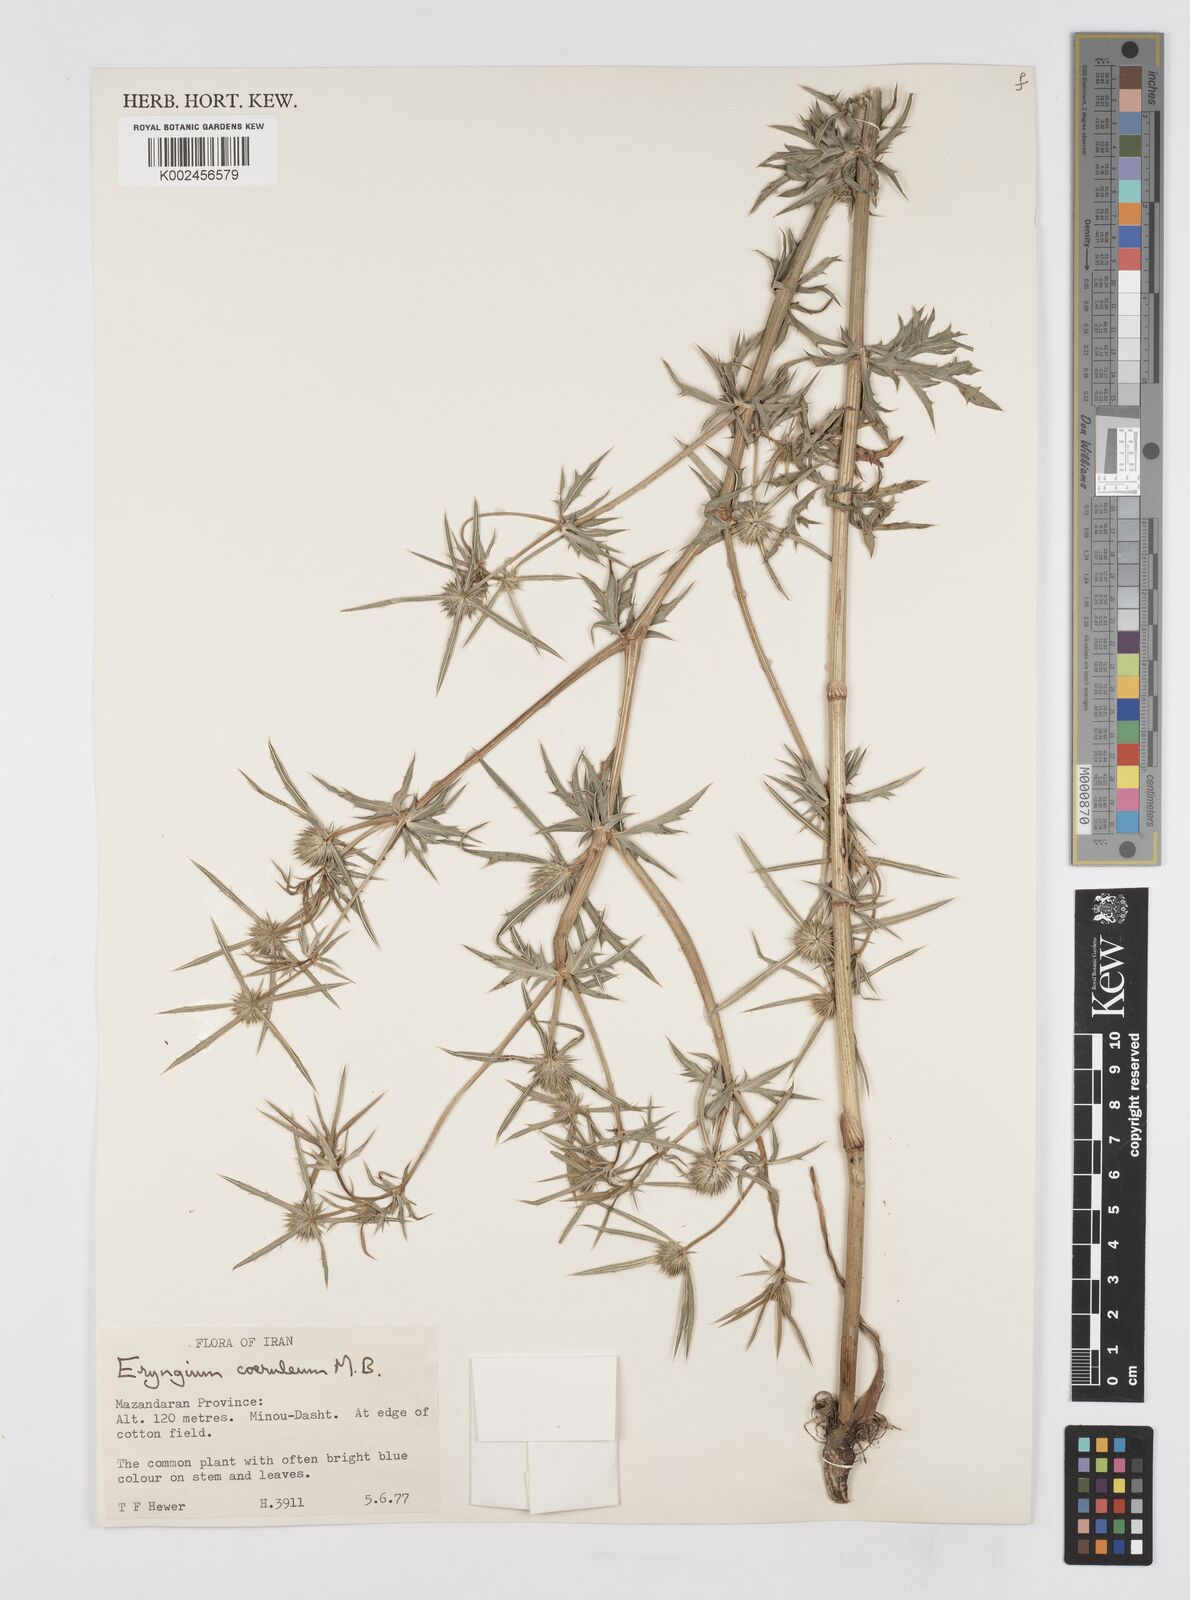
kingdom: Plantae
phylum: Tracheophyta
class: Magnoliopsida
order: Apiales
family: Apiaceae
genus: Eryngium
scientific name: Eryngium caeruleum
